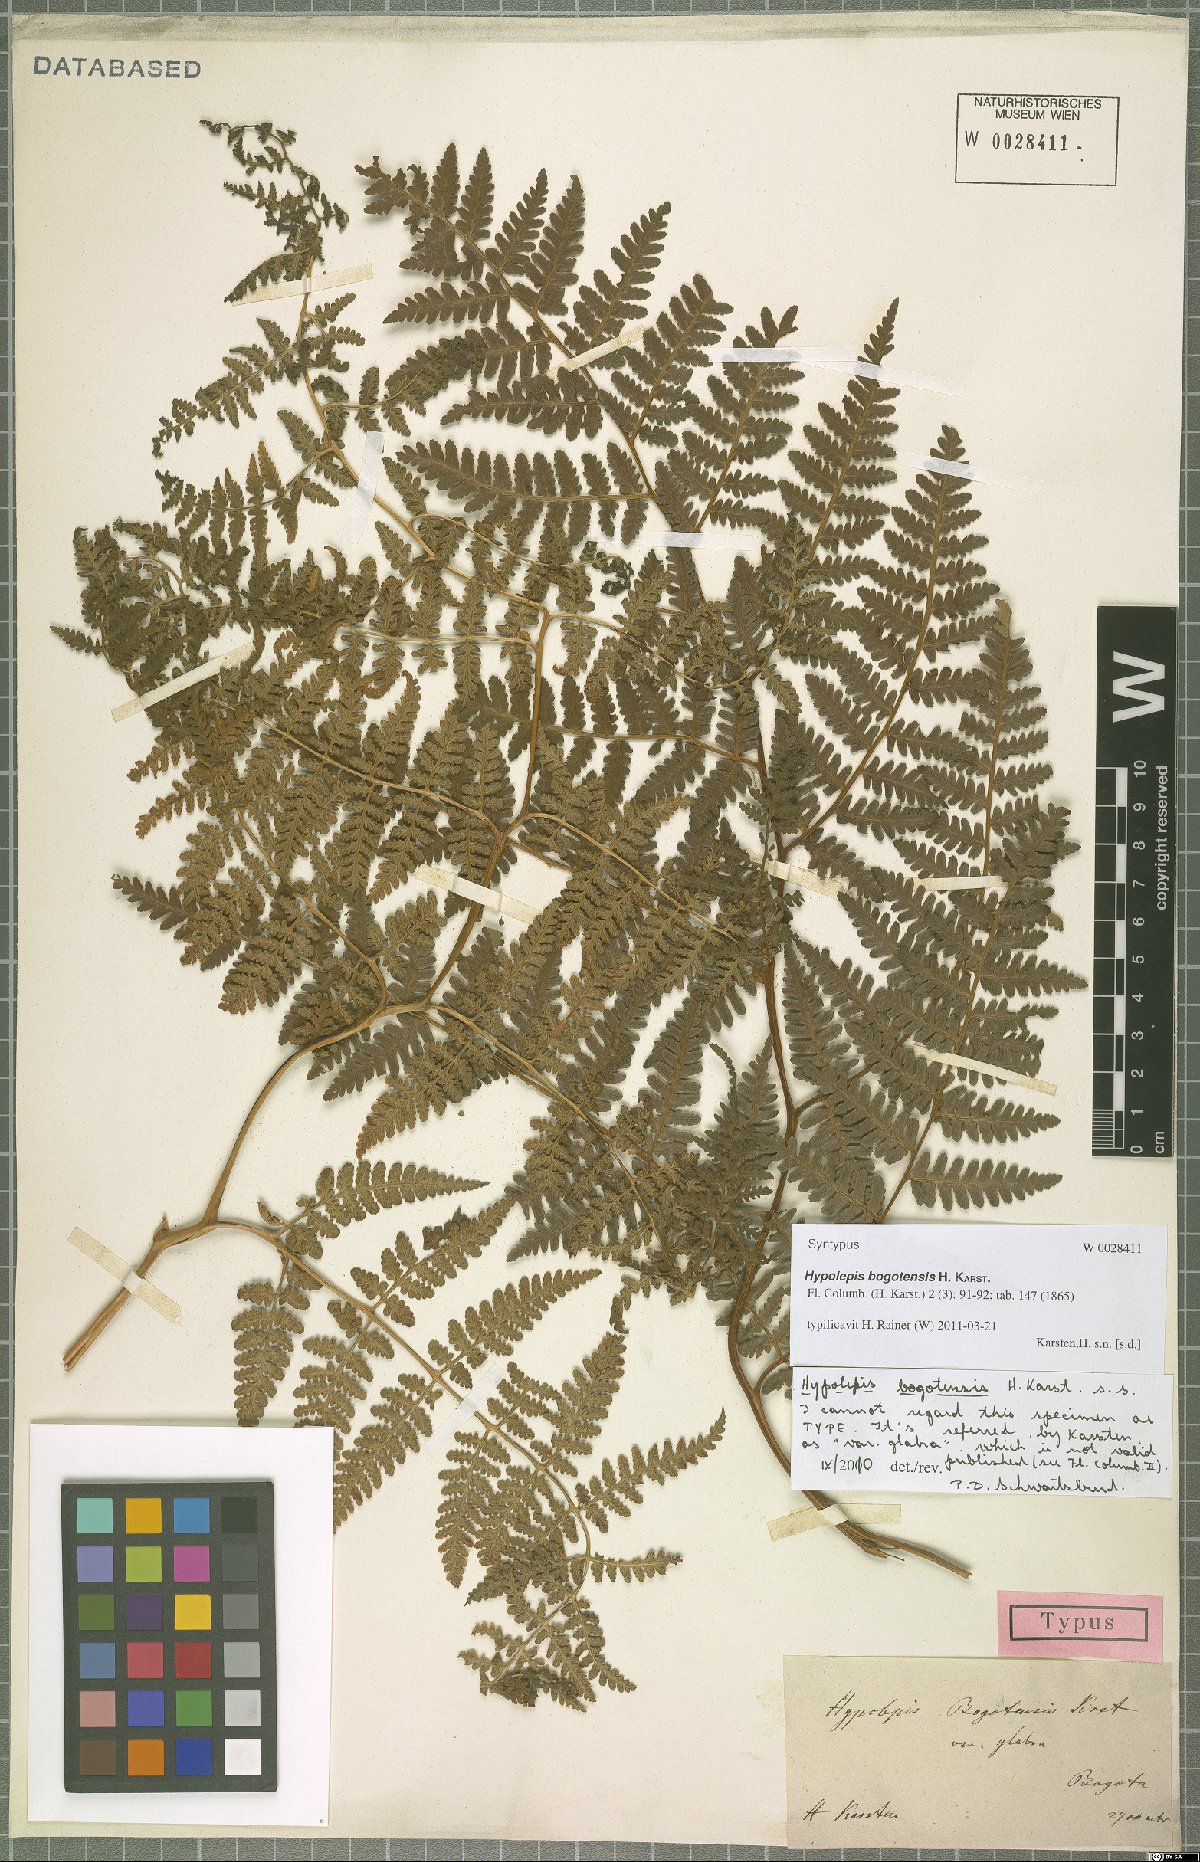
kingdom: Plantae
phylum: Tracheophyta
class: Polypodiopsida
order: Polypodiales
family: Dennstaedtiaceae
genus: Hypolepis
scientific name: Hypolepis bogotensis
